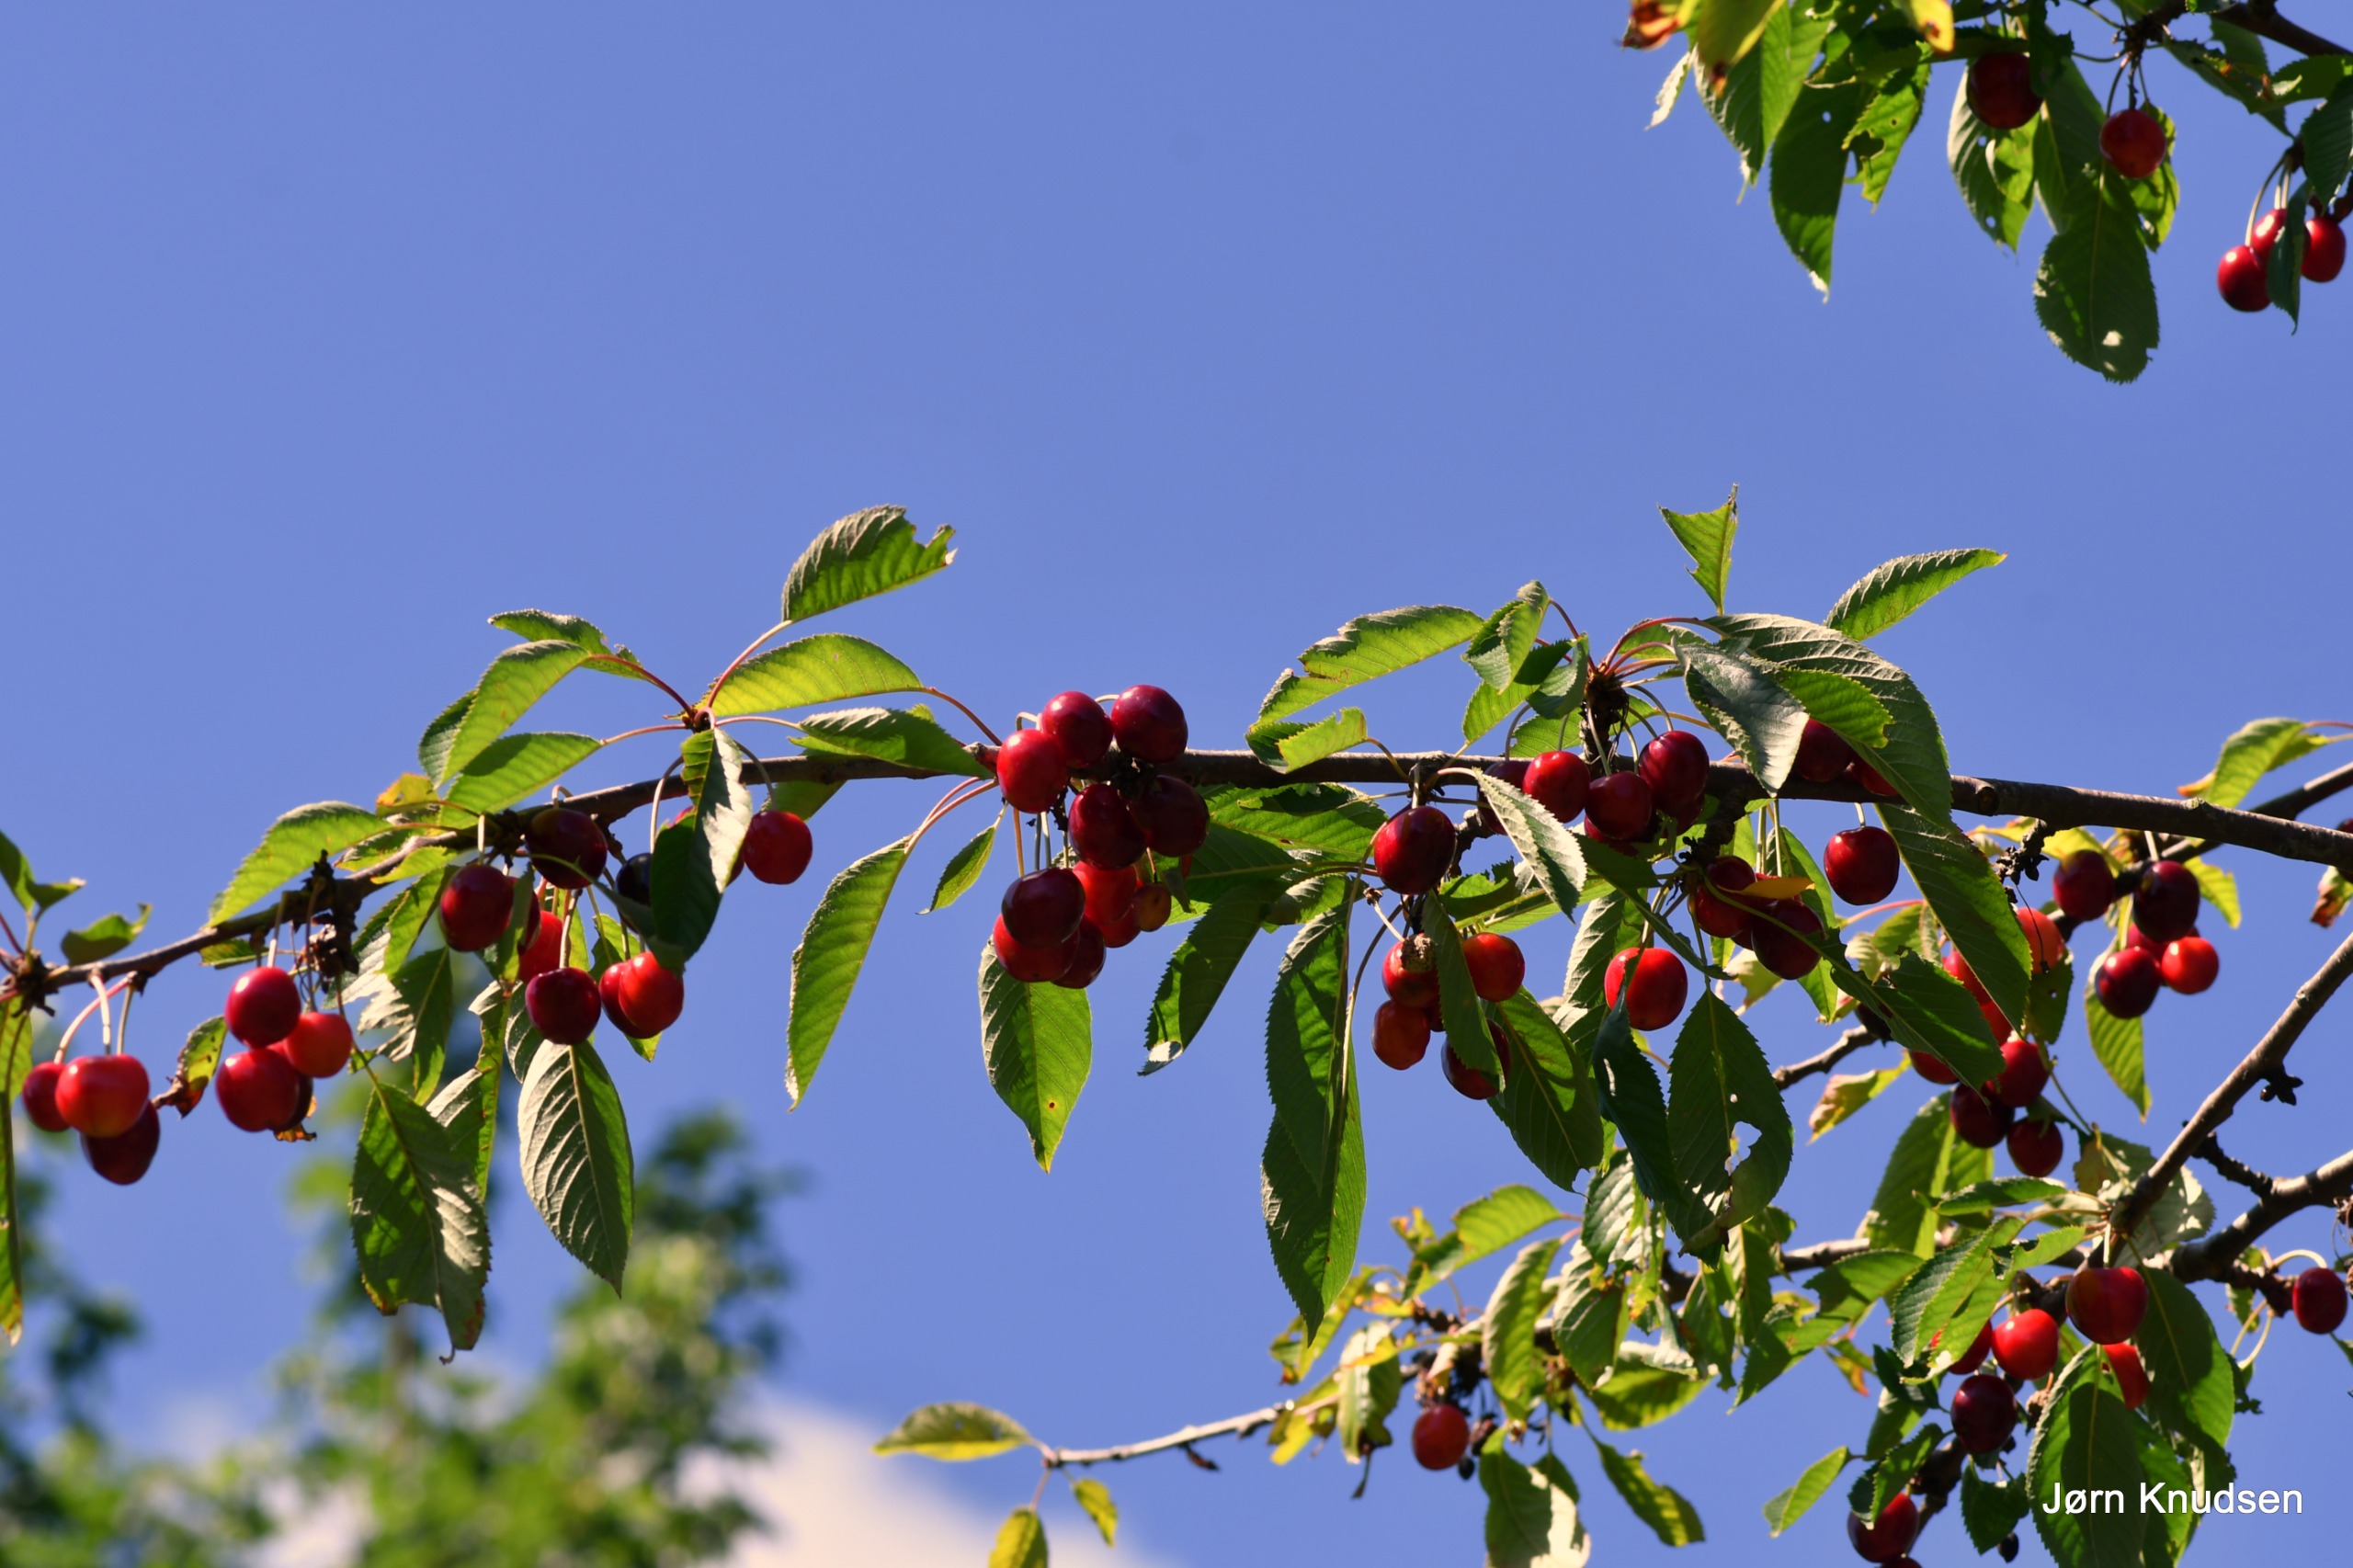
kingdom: Plantae
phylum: Tracheophyta
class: Magnoliopsida
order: Rosales
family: Rosaceae
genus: Prunus
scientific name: Prunus avium
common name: Fugle-kirsebær
